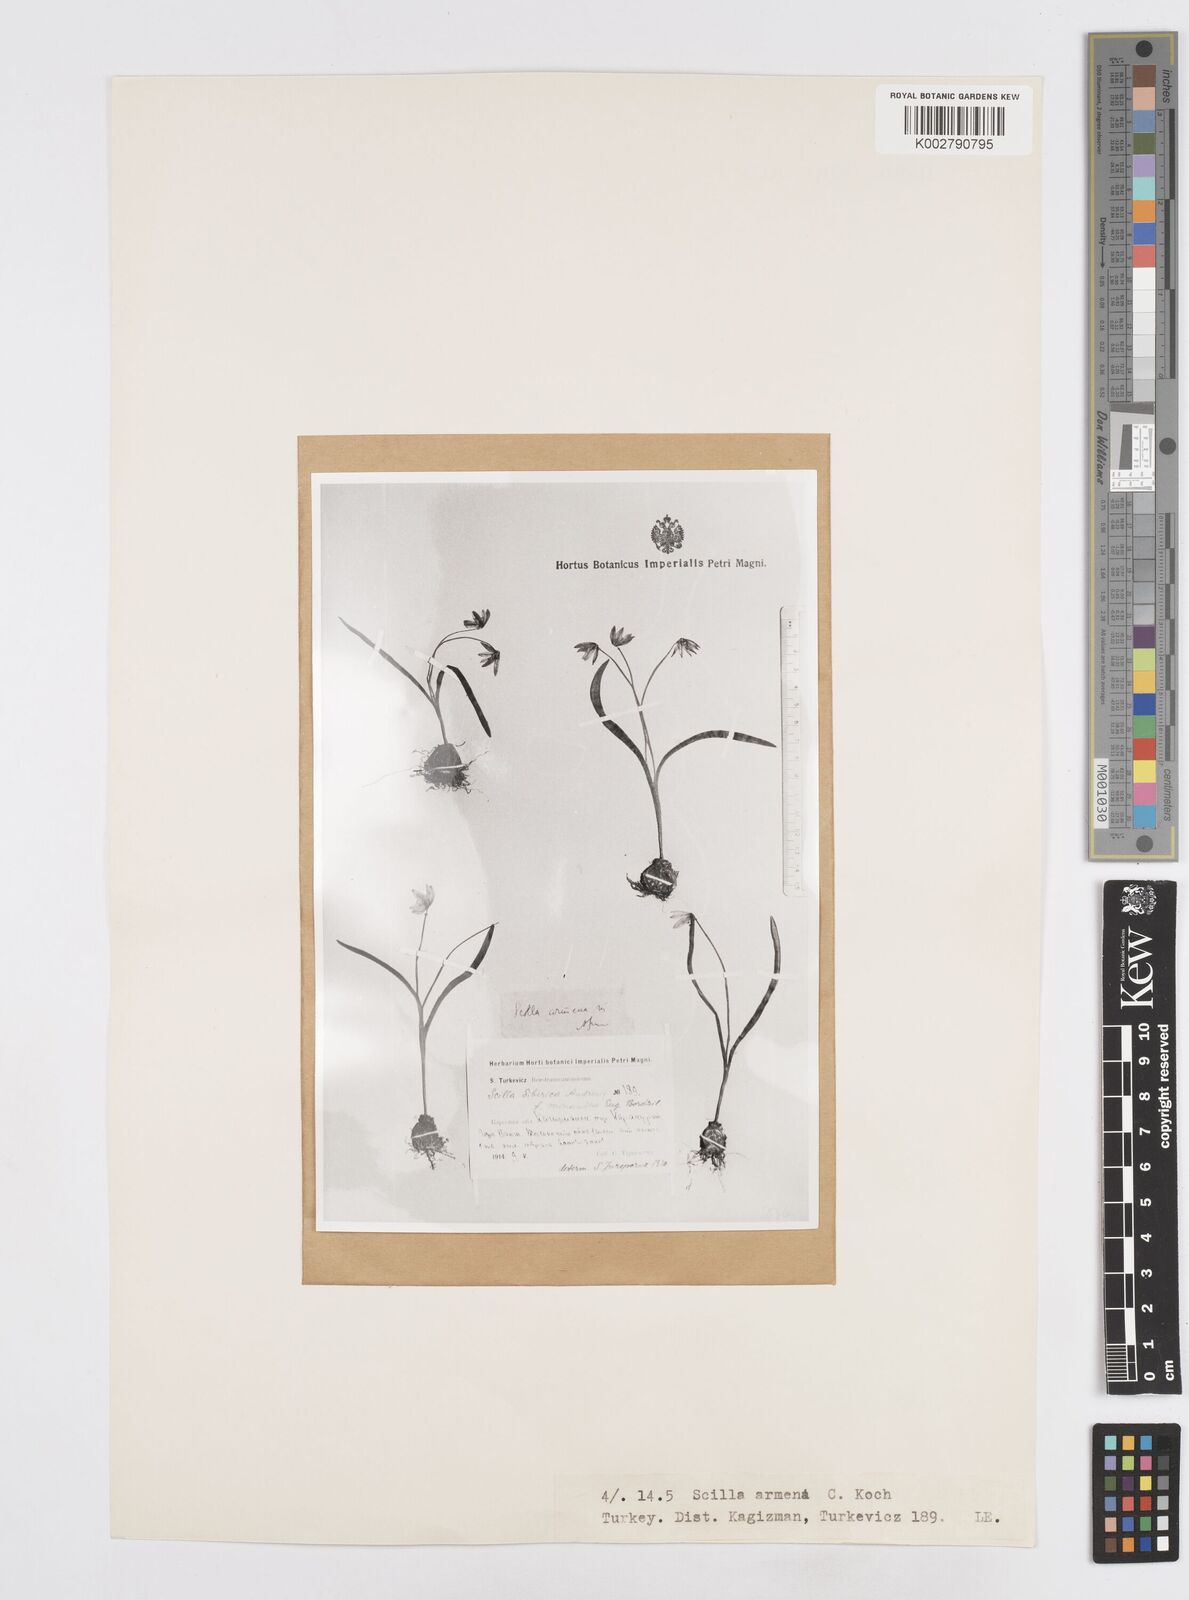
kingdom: Plantae
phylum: Tracheophyta
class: Liliopsida
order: Asparagales
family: Asparagaceae
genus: Scilla
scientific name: Scilla siberica
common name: Siberian squill
